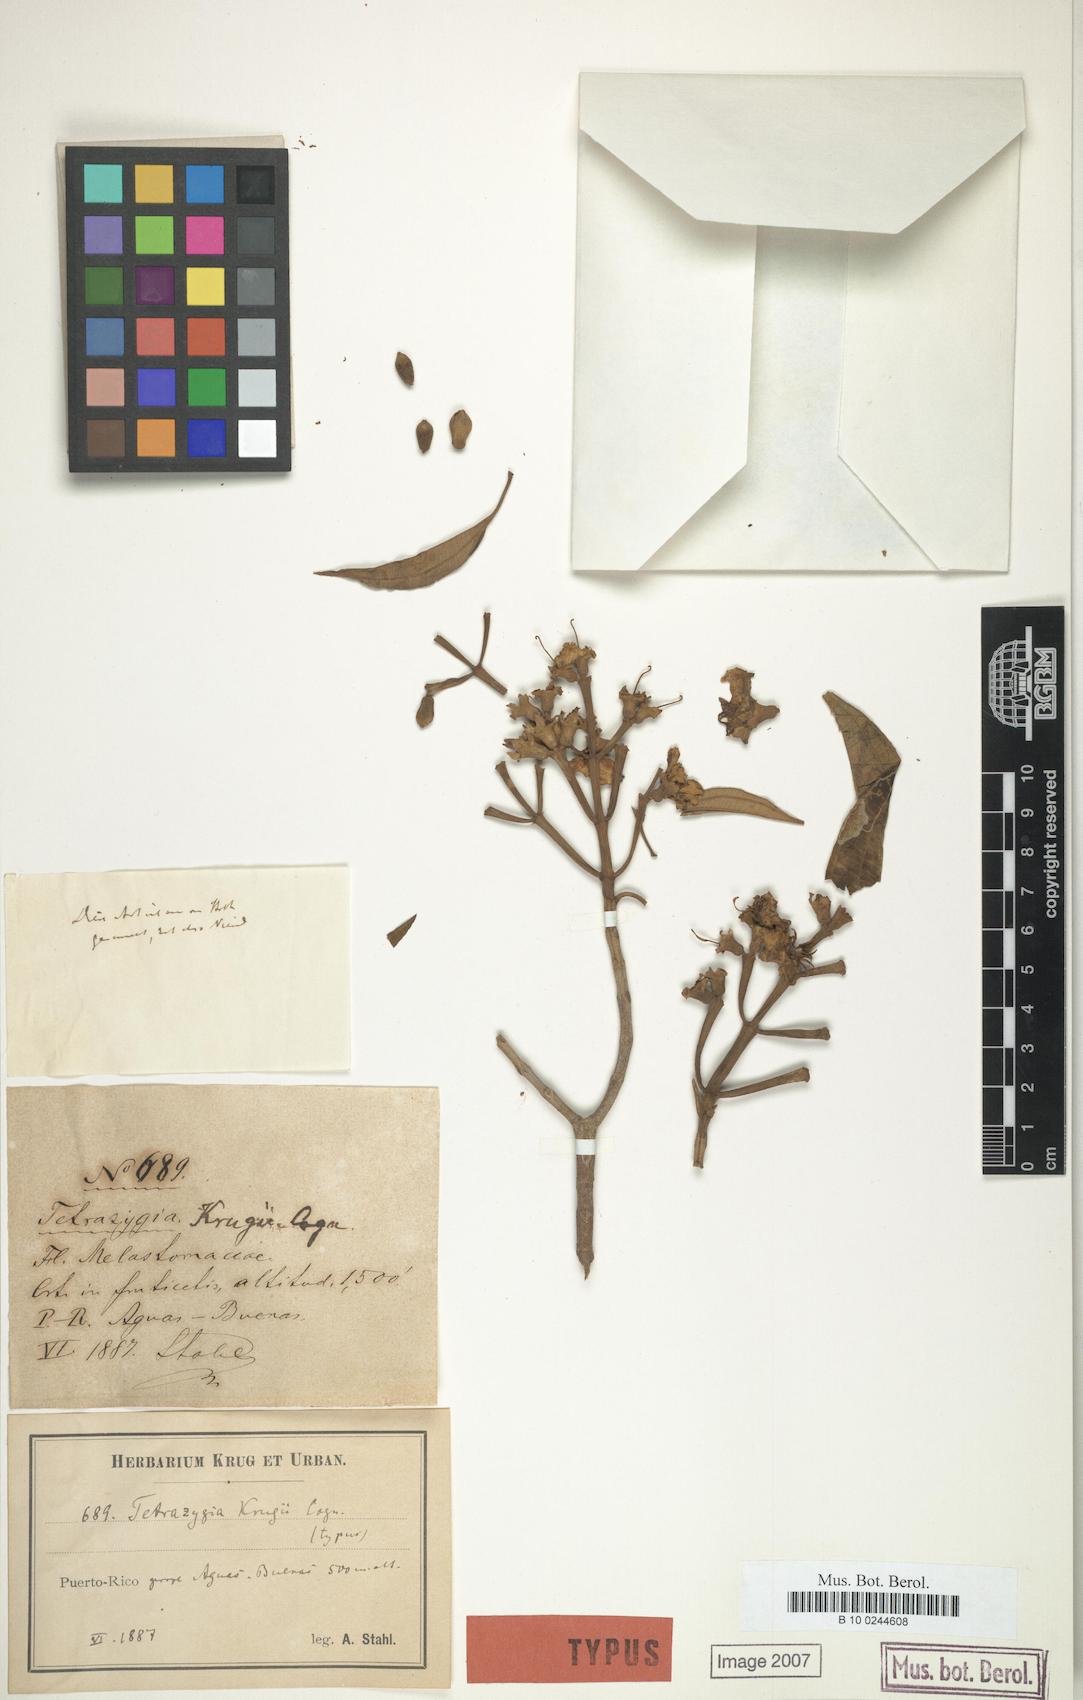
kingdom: Plantae
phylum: Tracheophyta
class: Magnoliopsida
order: Myrtales
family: Melastomataceae
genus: Miconia
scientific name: Miconia biflora
